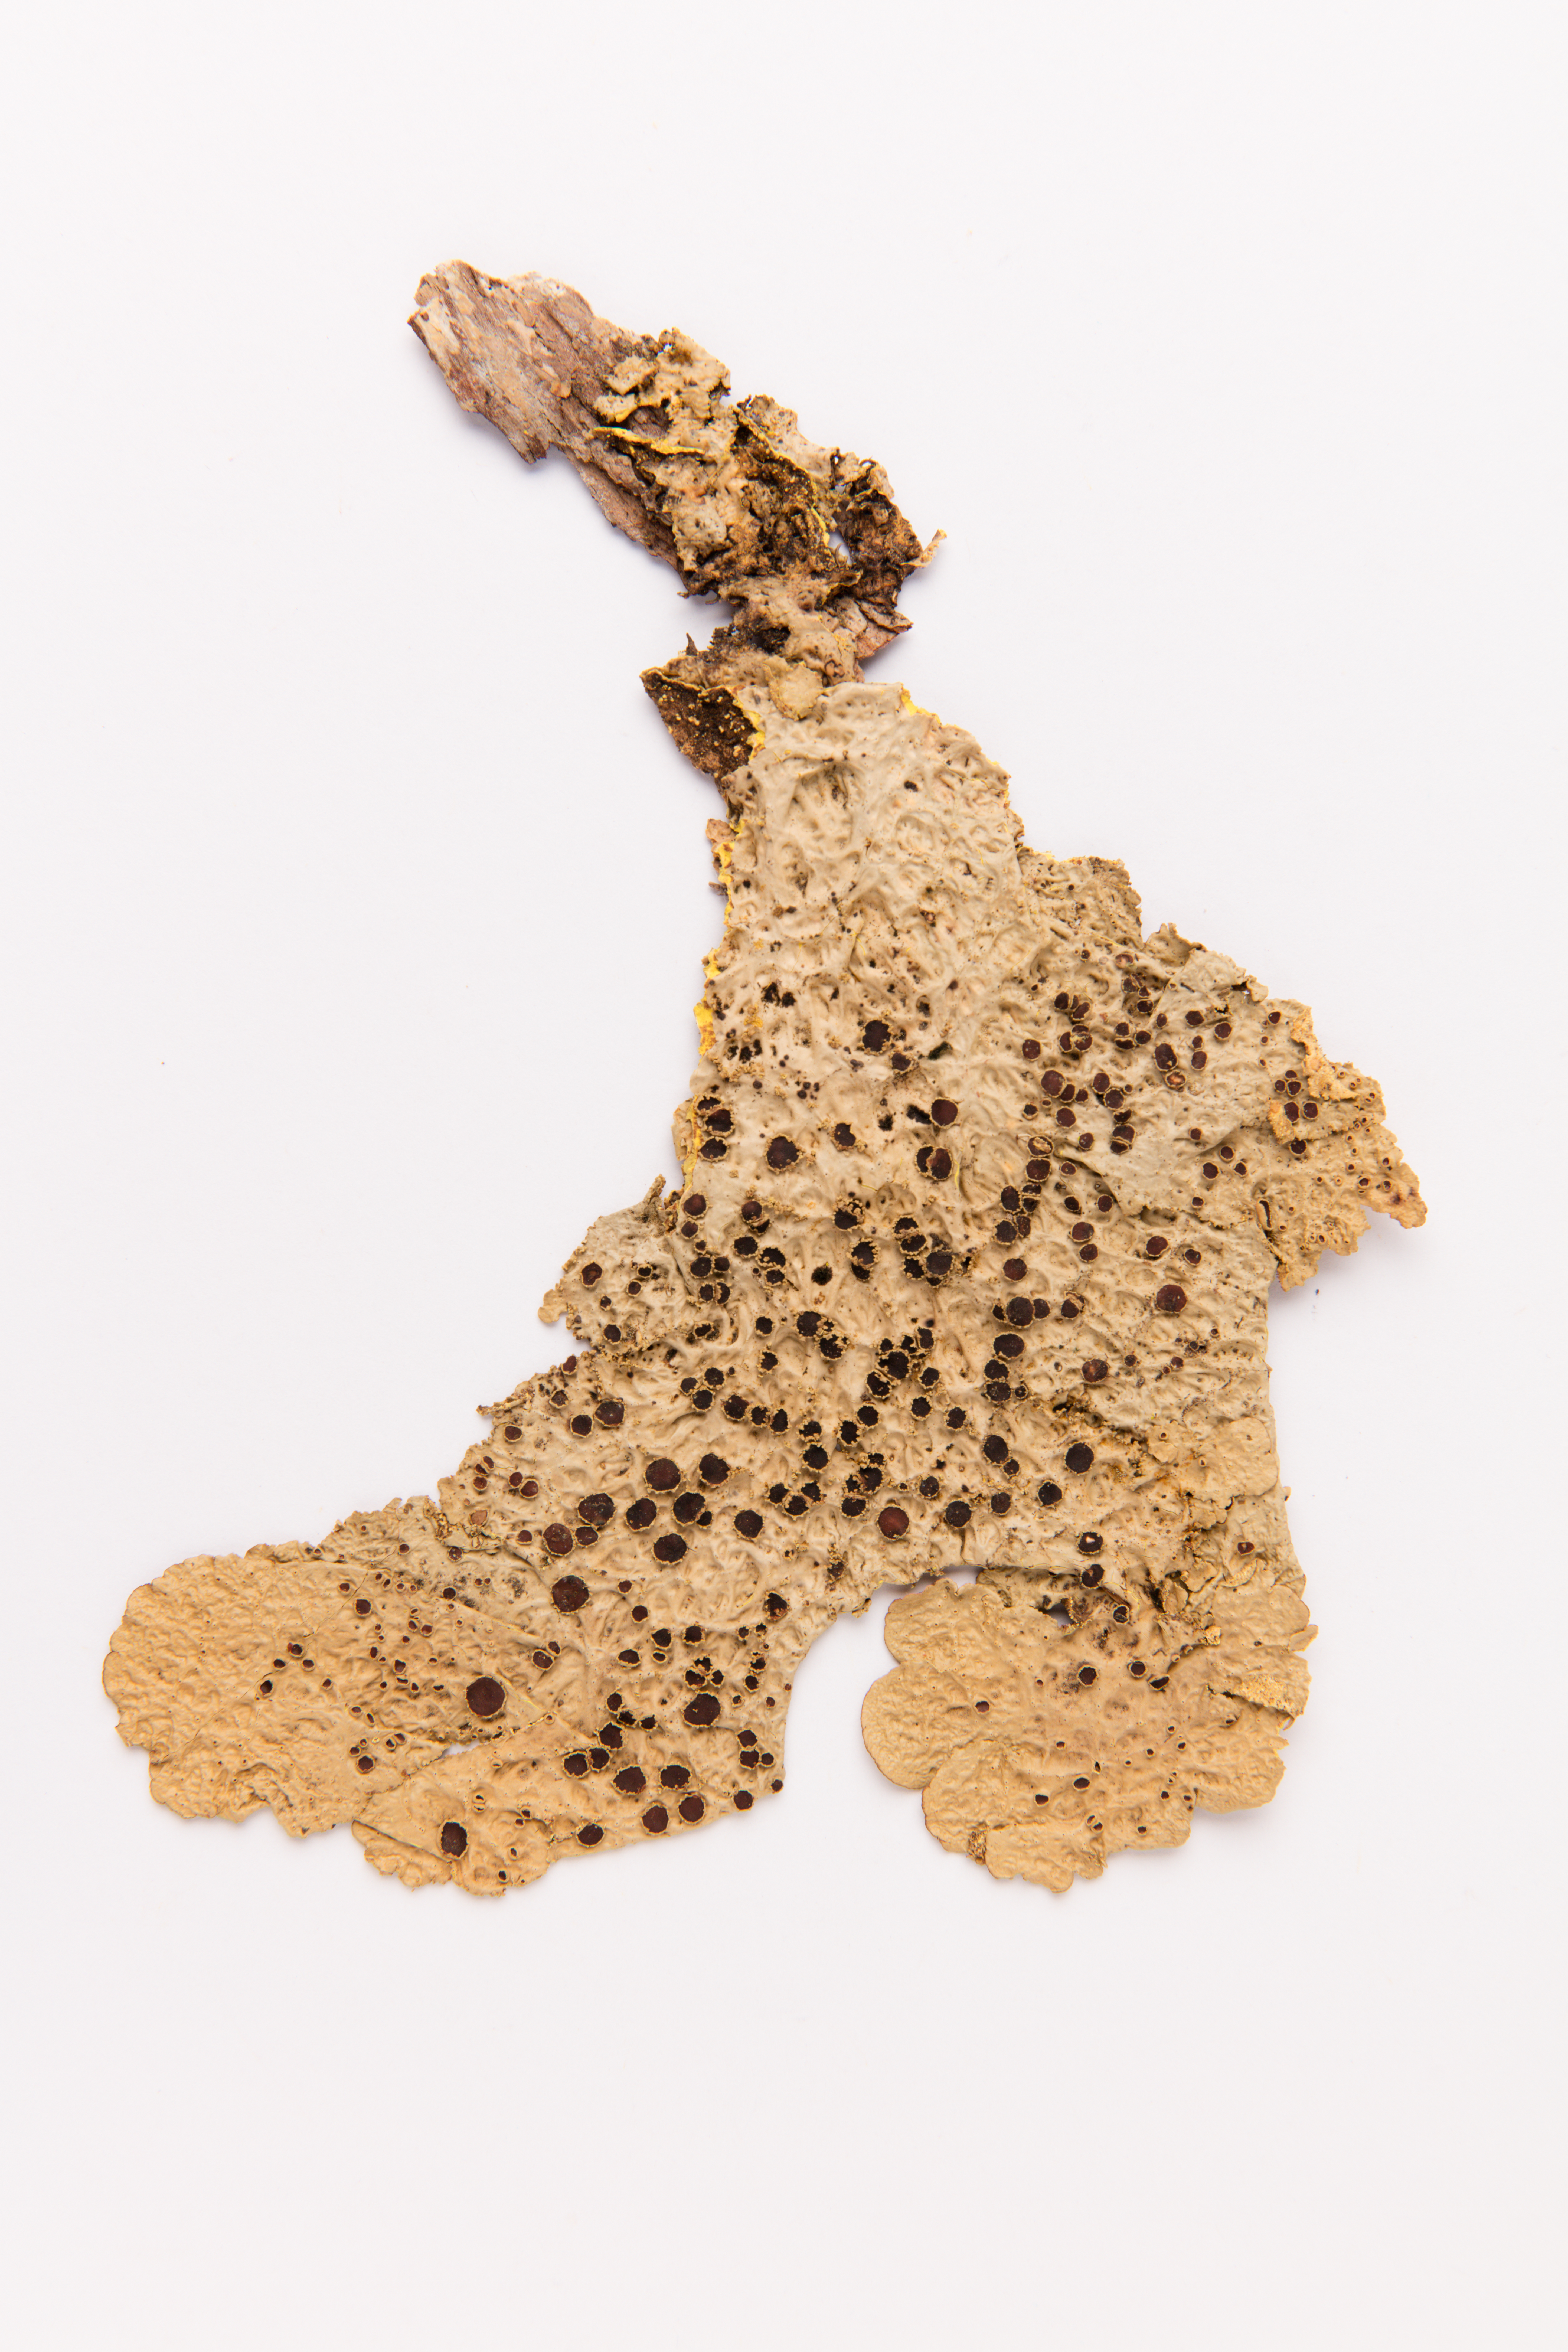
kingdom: Fungi
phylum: Ascomycota
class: Lecanoromycetes
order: Peltigerales
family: Lobariaceae
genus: Yarrumia
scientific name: Yarrumia colensoi
